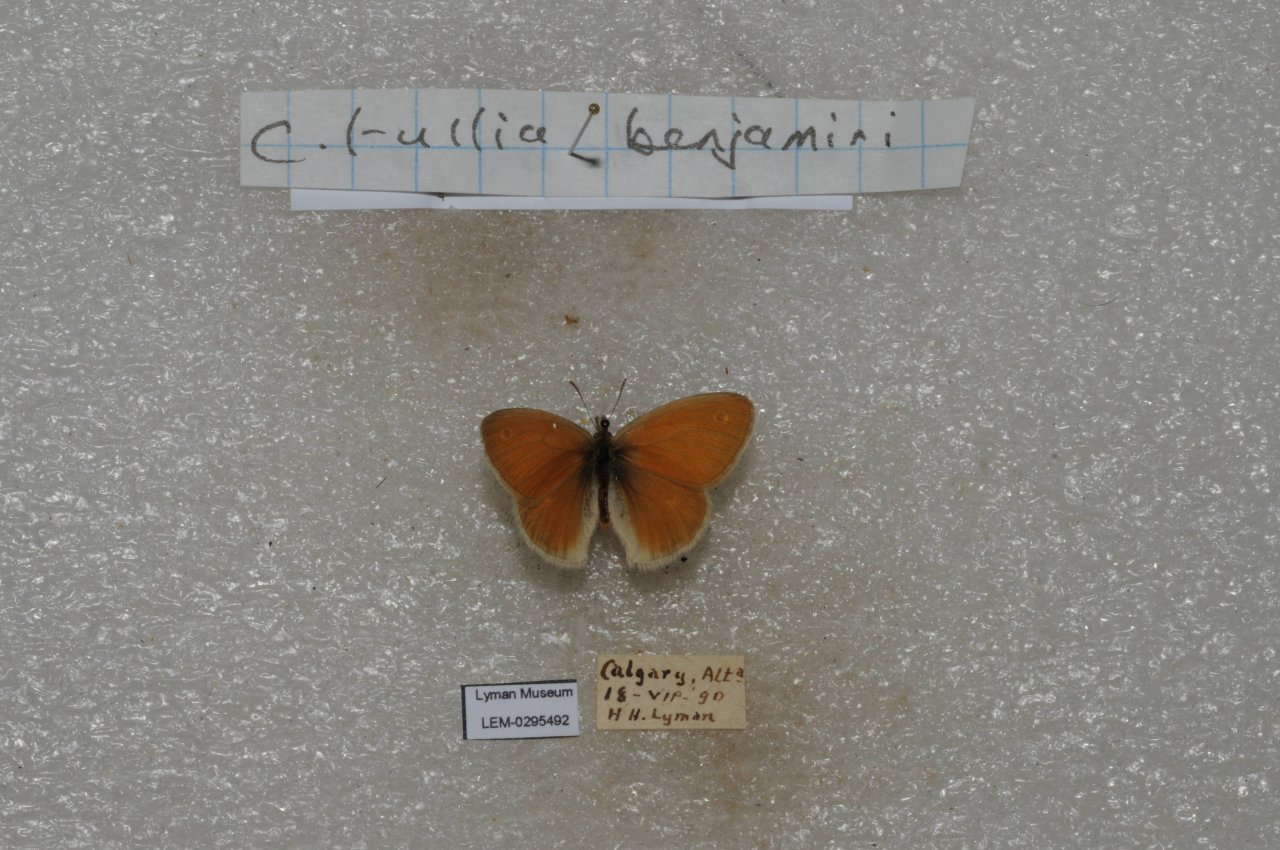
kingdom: Animalia
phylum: Arthropoda
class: Insecta
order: Lepidoptera
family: Nymphalidae
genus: Coenonympha
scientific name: Coenonympha tullia
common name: Large Heath
